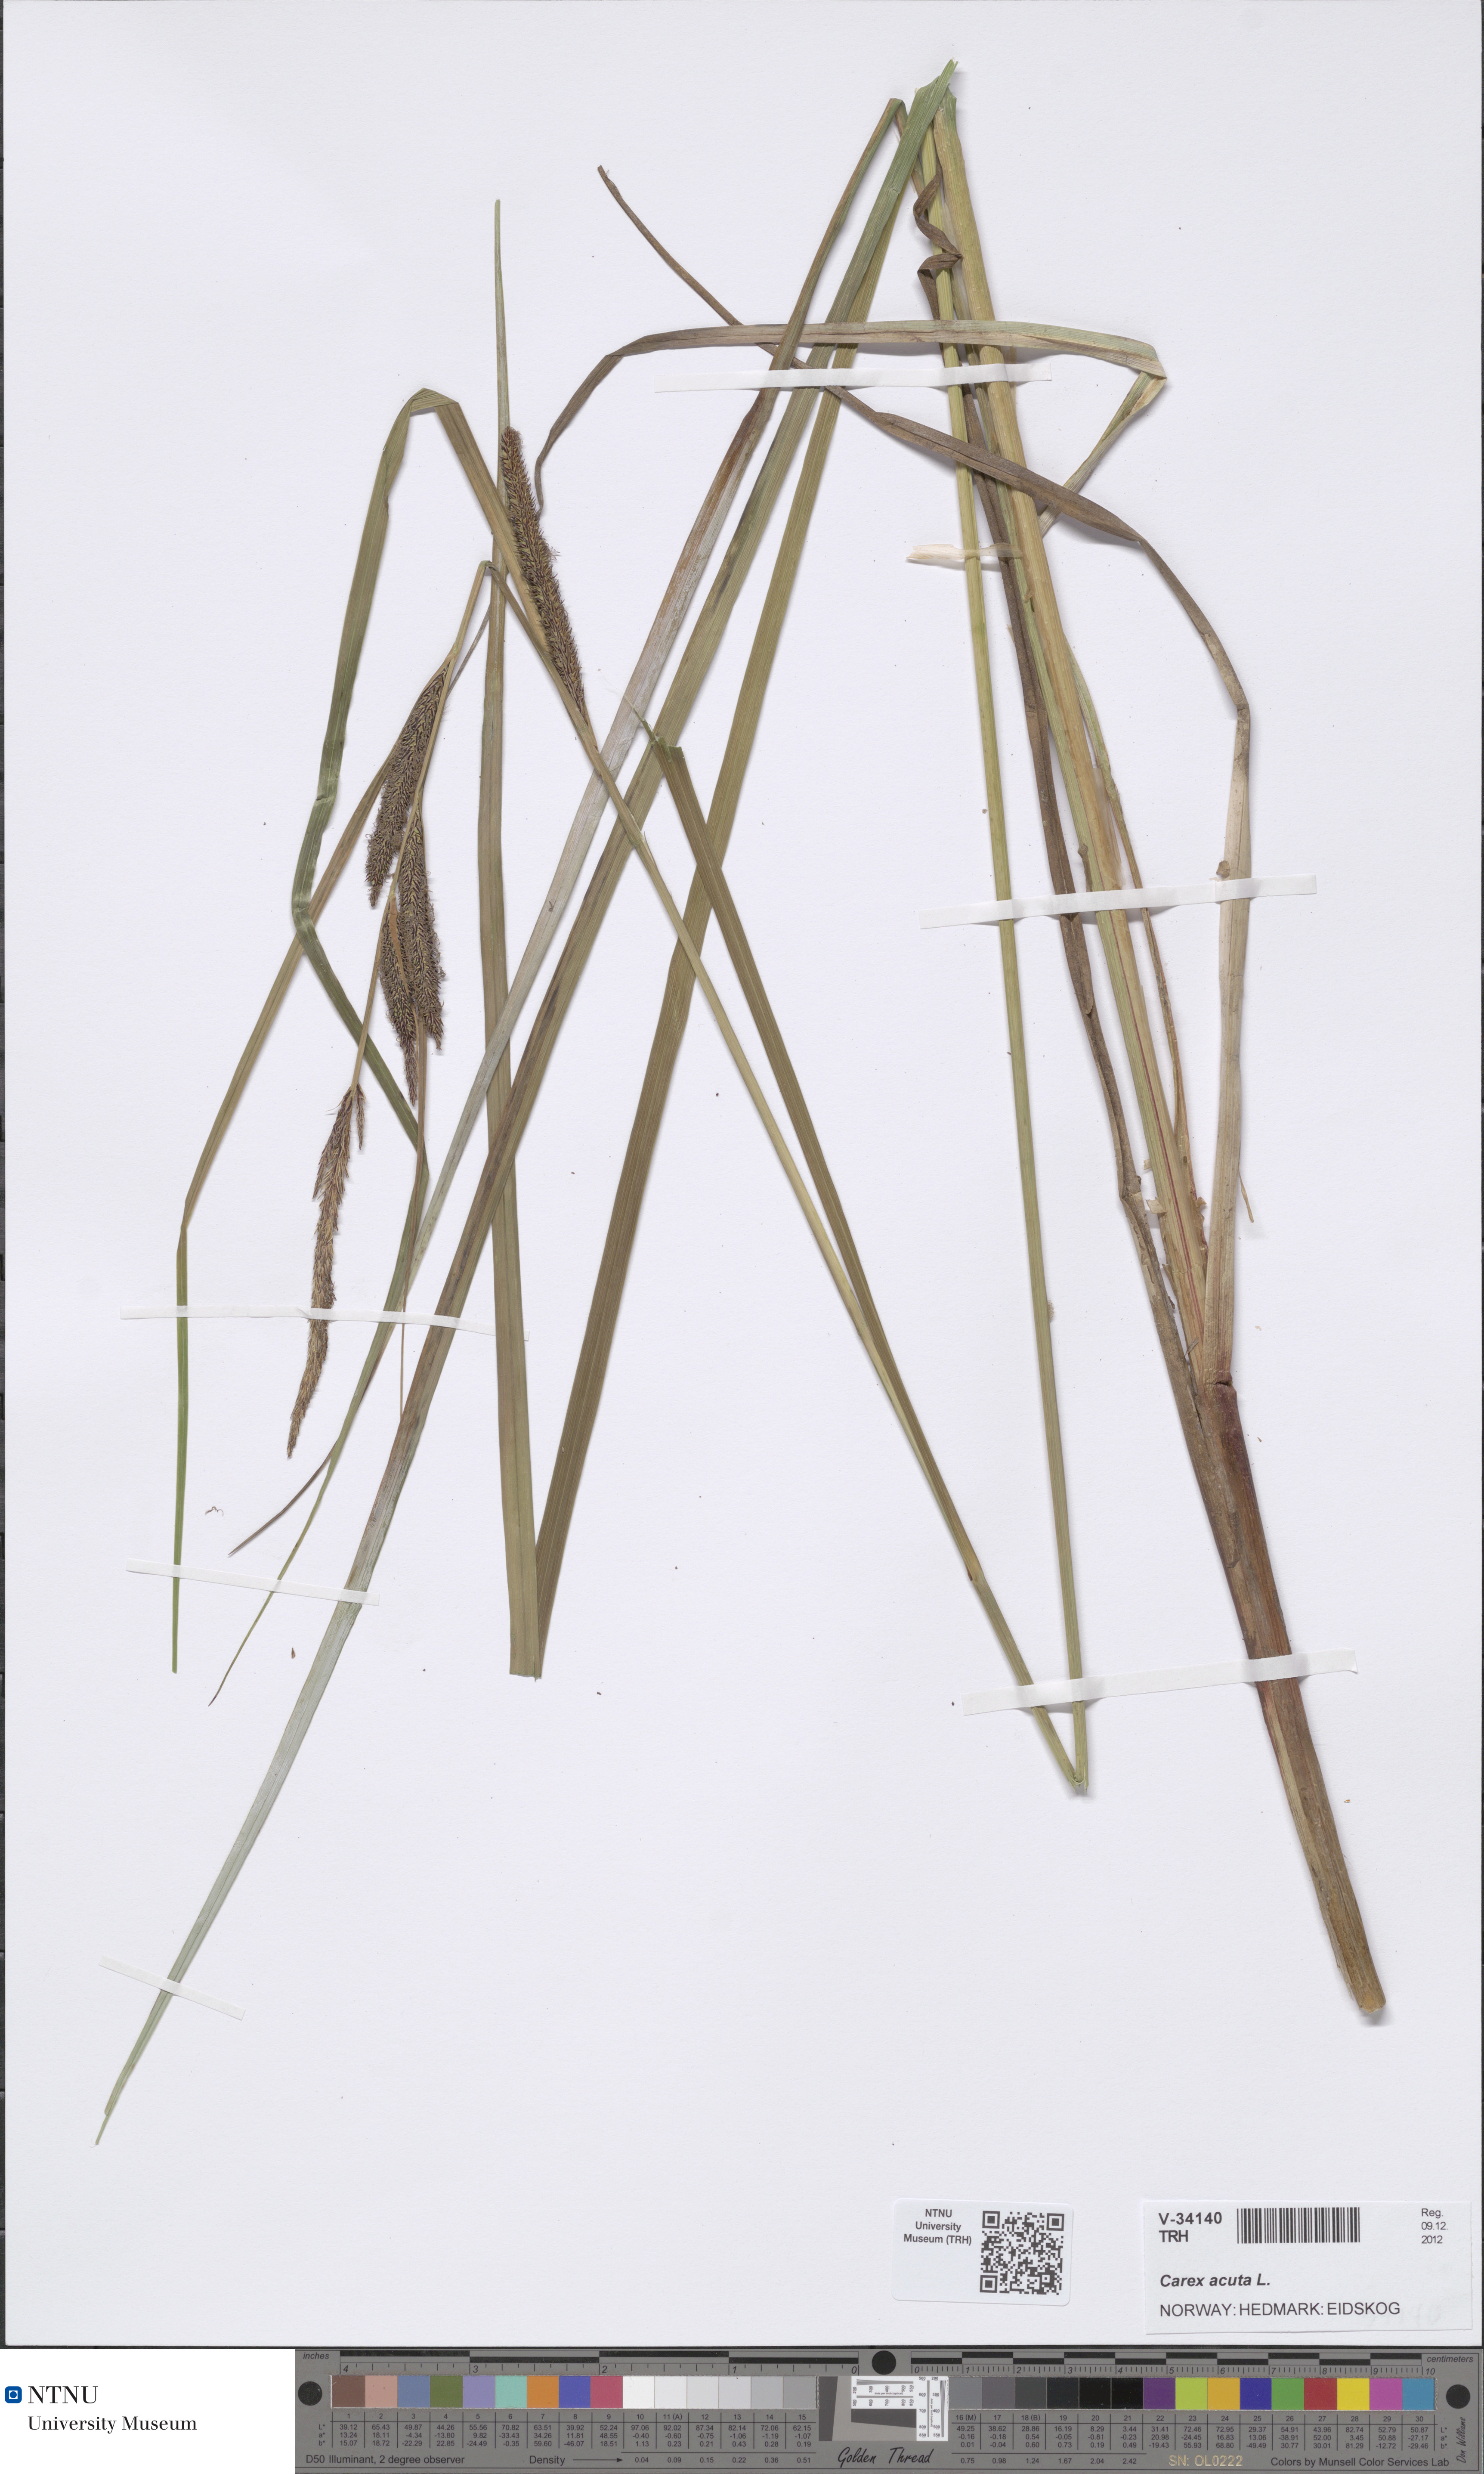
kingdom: Plantae
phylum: Tracheophyta
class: Liliopsida
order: Poales
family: Cyperaceae
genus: Carex
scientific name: Carex acuta
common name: Slender tufted-sedge
